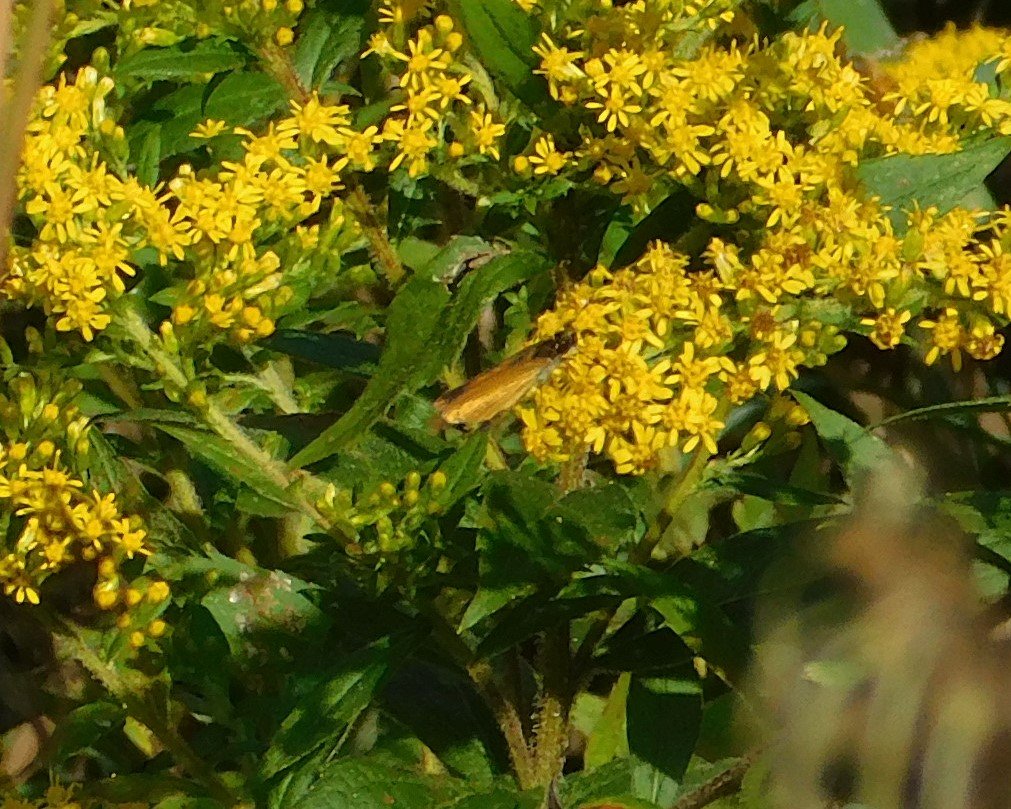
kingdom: Animalia
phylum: Arthropoda
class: Insecta
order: Lepidoptera
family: Hesperiidae
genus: Ancyloxypha
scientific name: Ancyloxypha numitor
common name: Least Skipper
